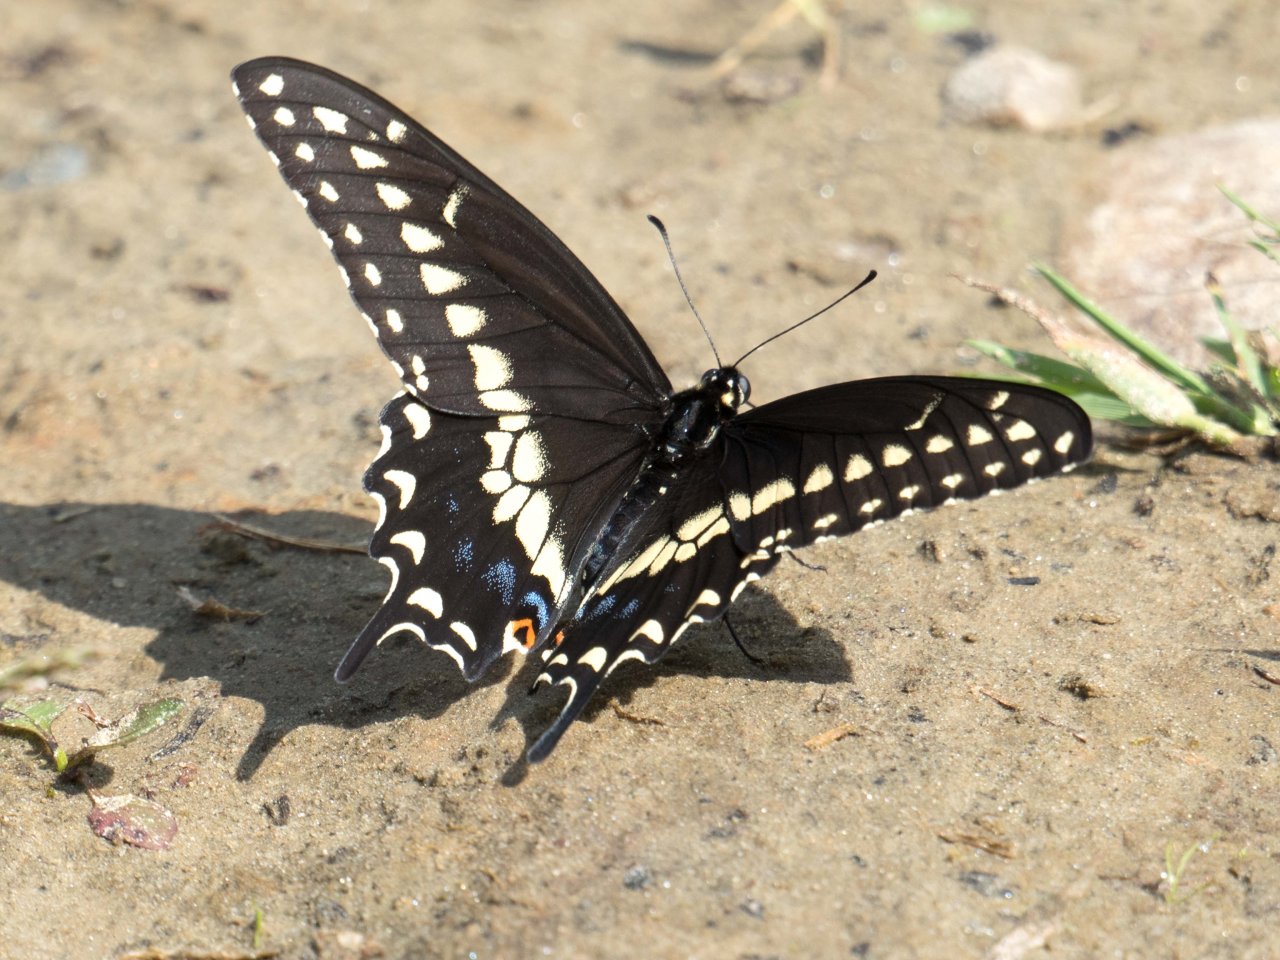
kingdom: Animalia
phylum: Arthropoda
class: Insecta
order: Lepidoptera
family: Papilionidae
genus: Papilio
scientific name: Papilio polyxenes
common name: Black Swallowtail
